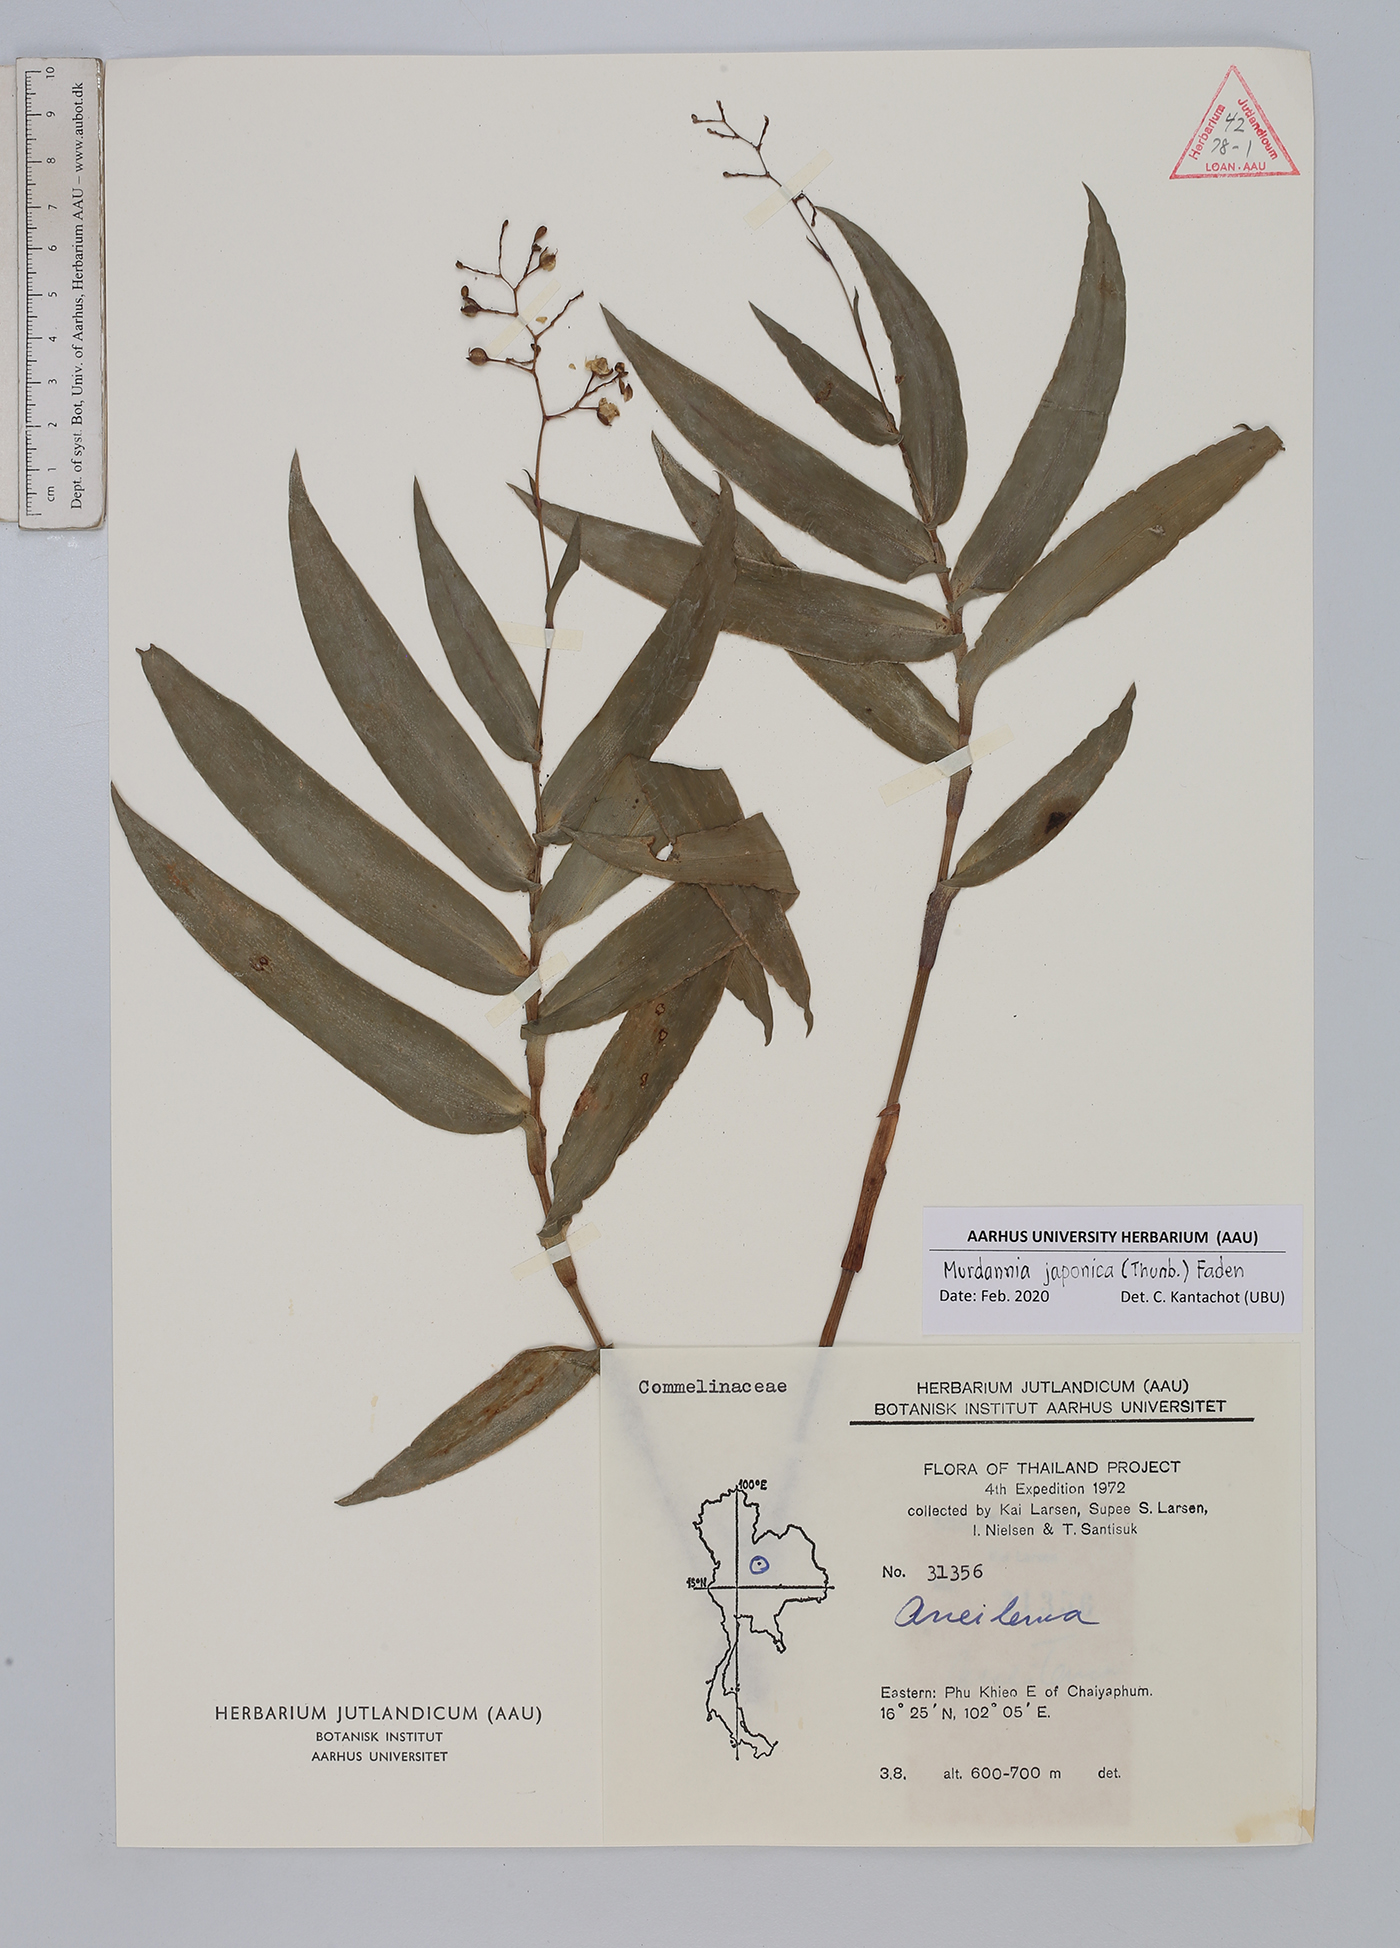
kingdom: Plantae
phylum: Tracheophyta
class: Liliopsida
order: Commelinales
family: Commelinaceae
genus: Murdannia
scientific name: Murdannia japonica
